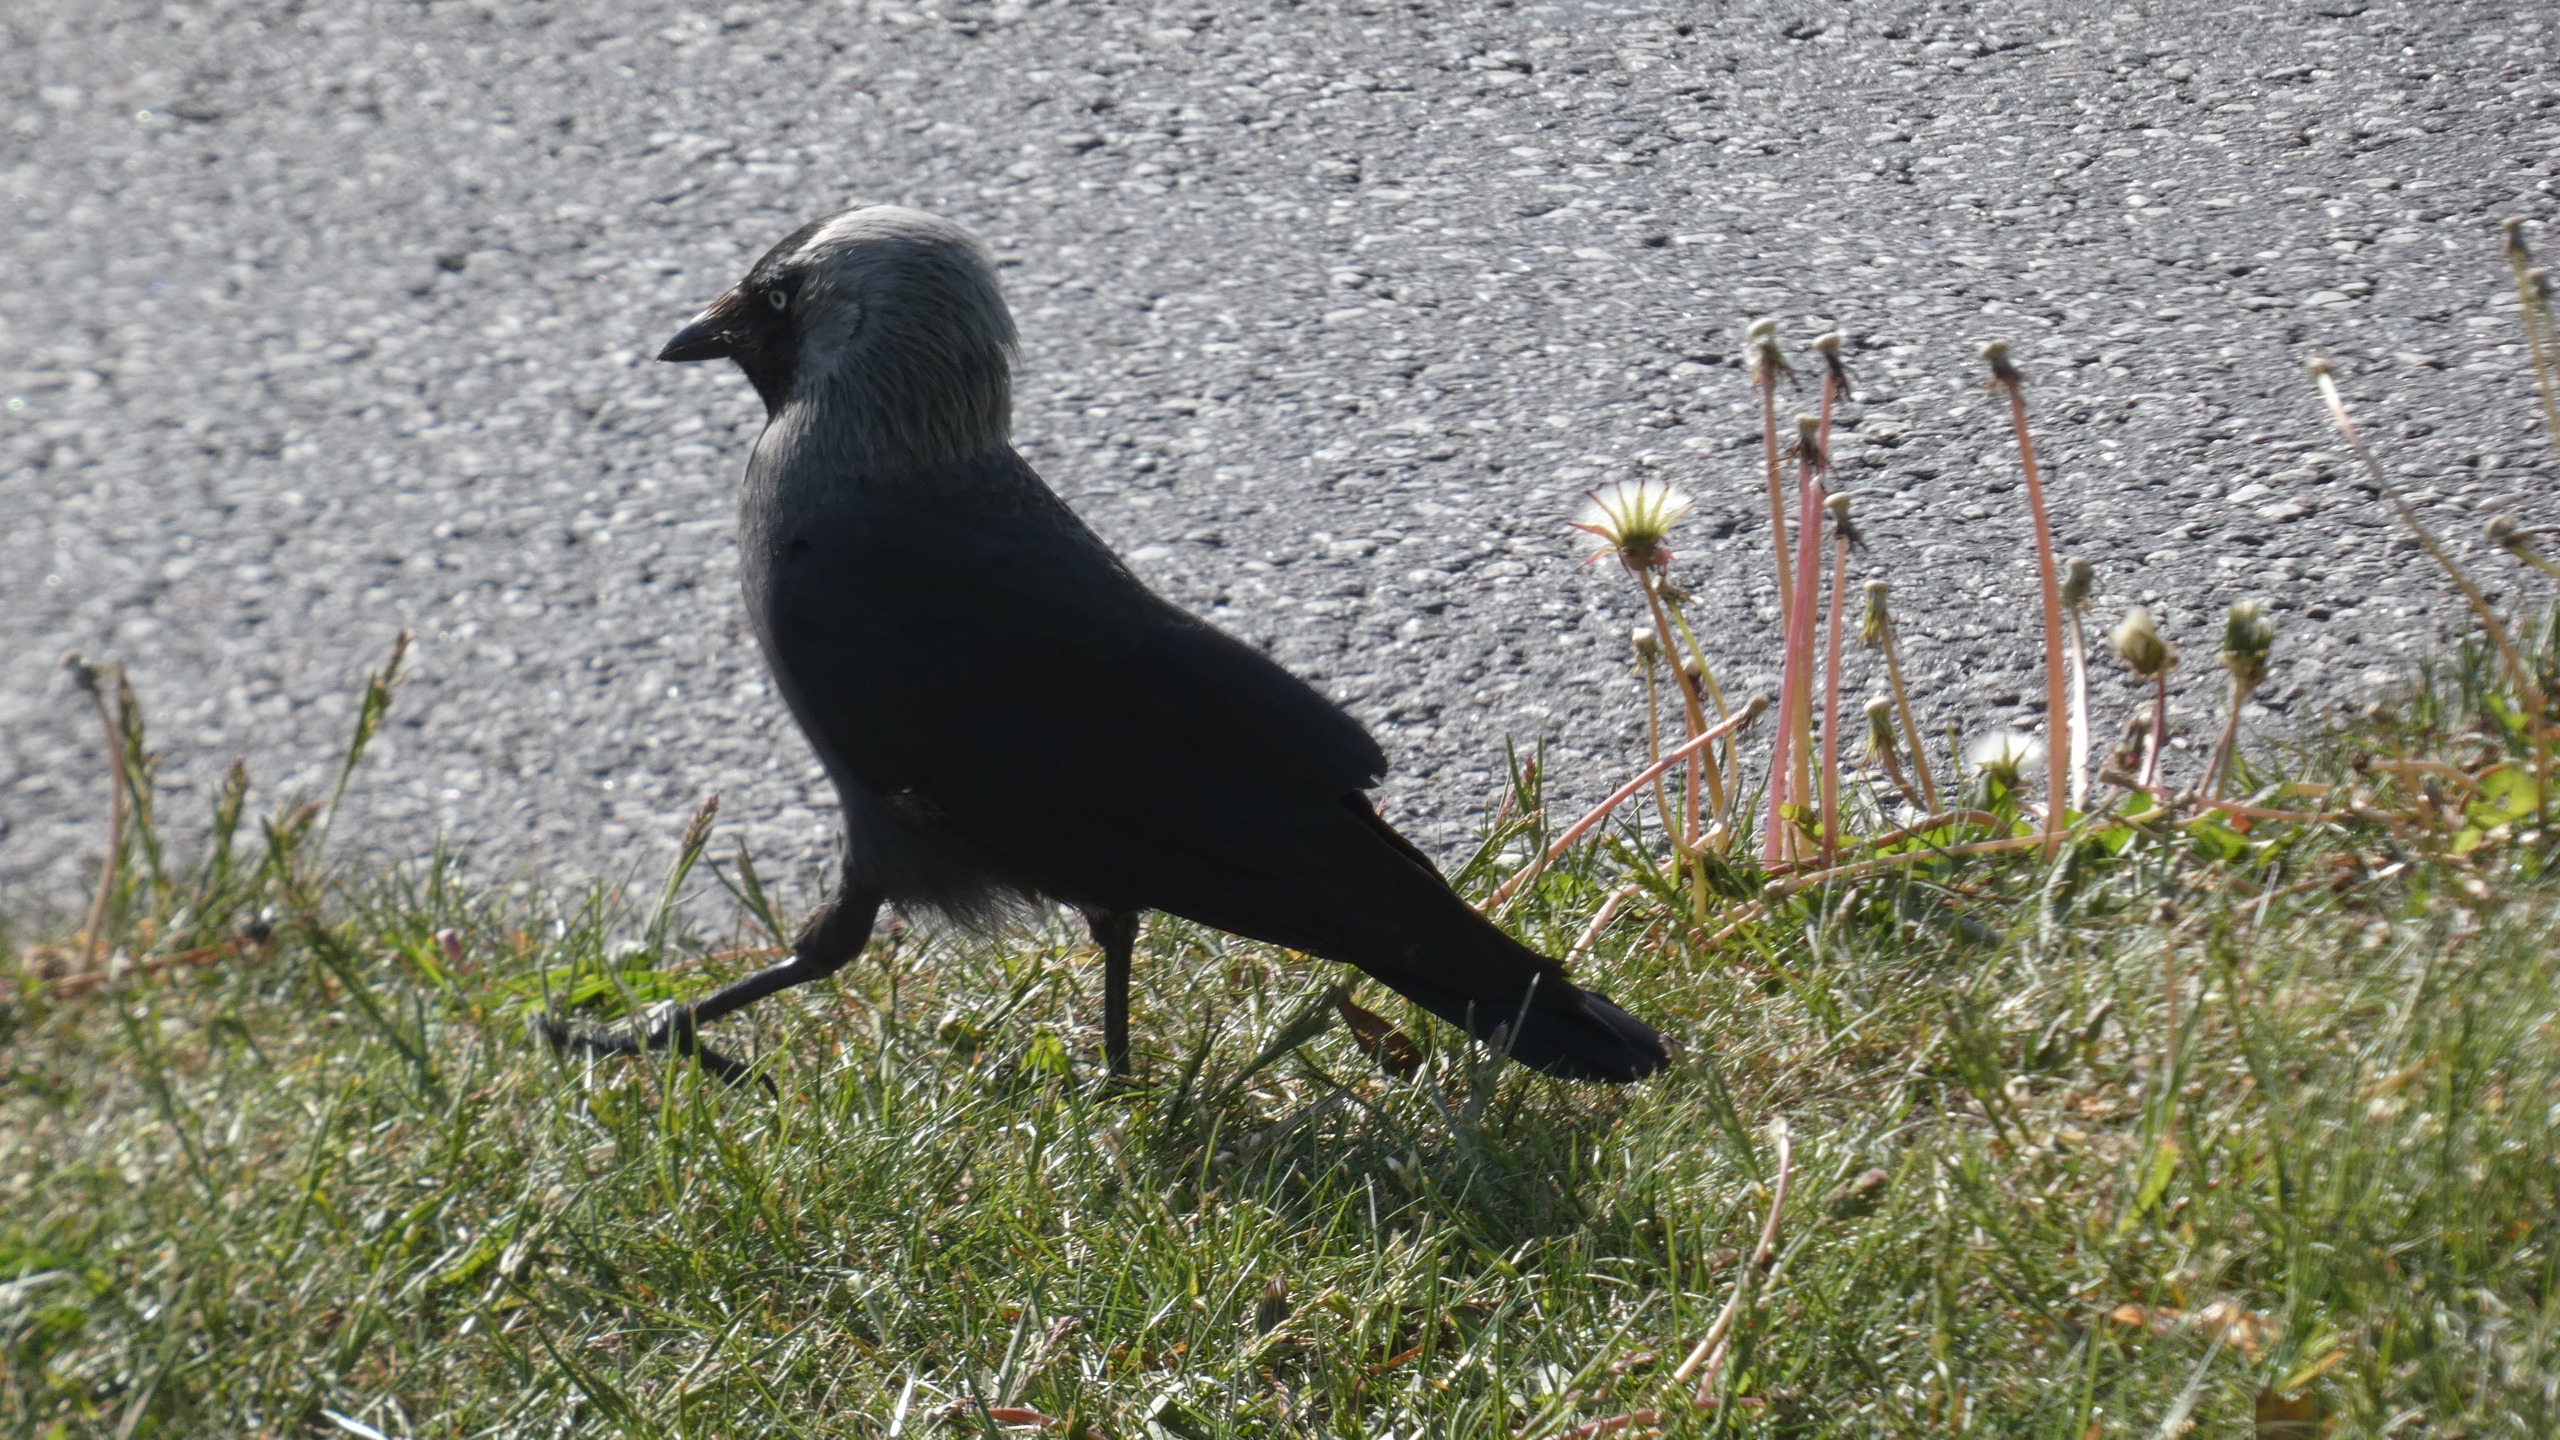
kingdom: Animalia
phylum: Chordata
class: Aves
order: Passeriformes
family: Corvidae
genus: Coloeus
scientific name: Coloeus monedula
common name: Allike
